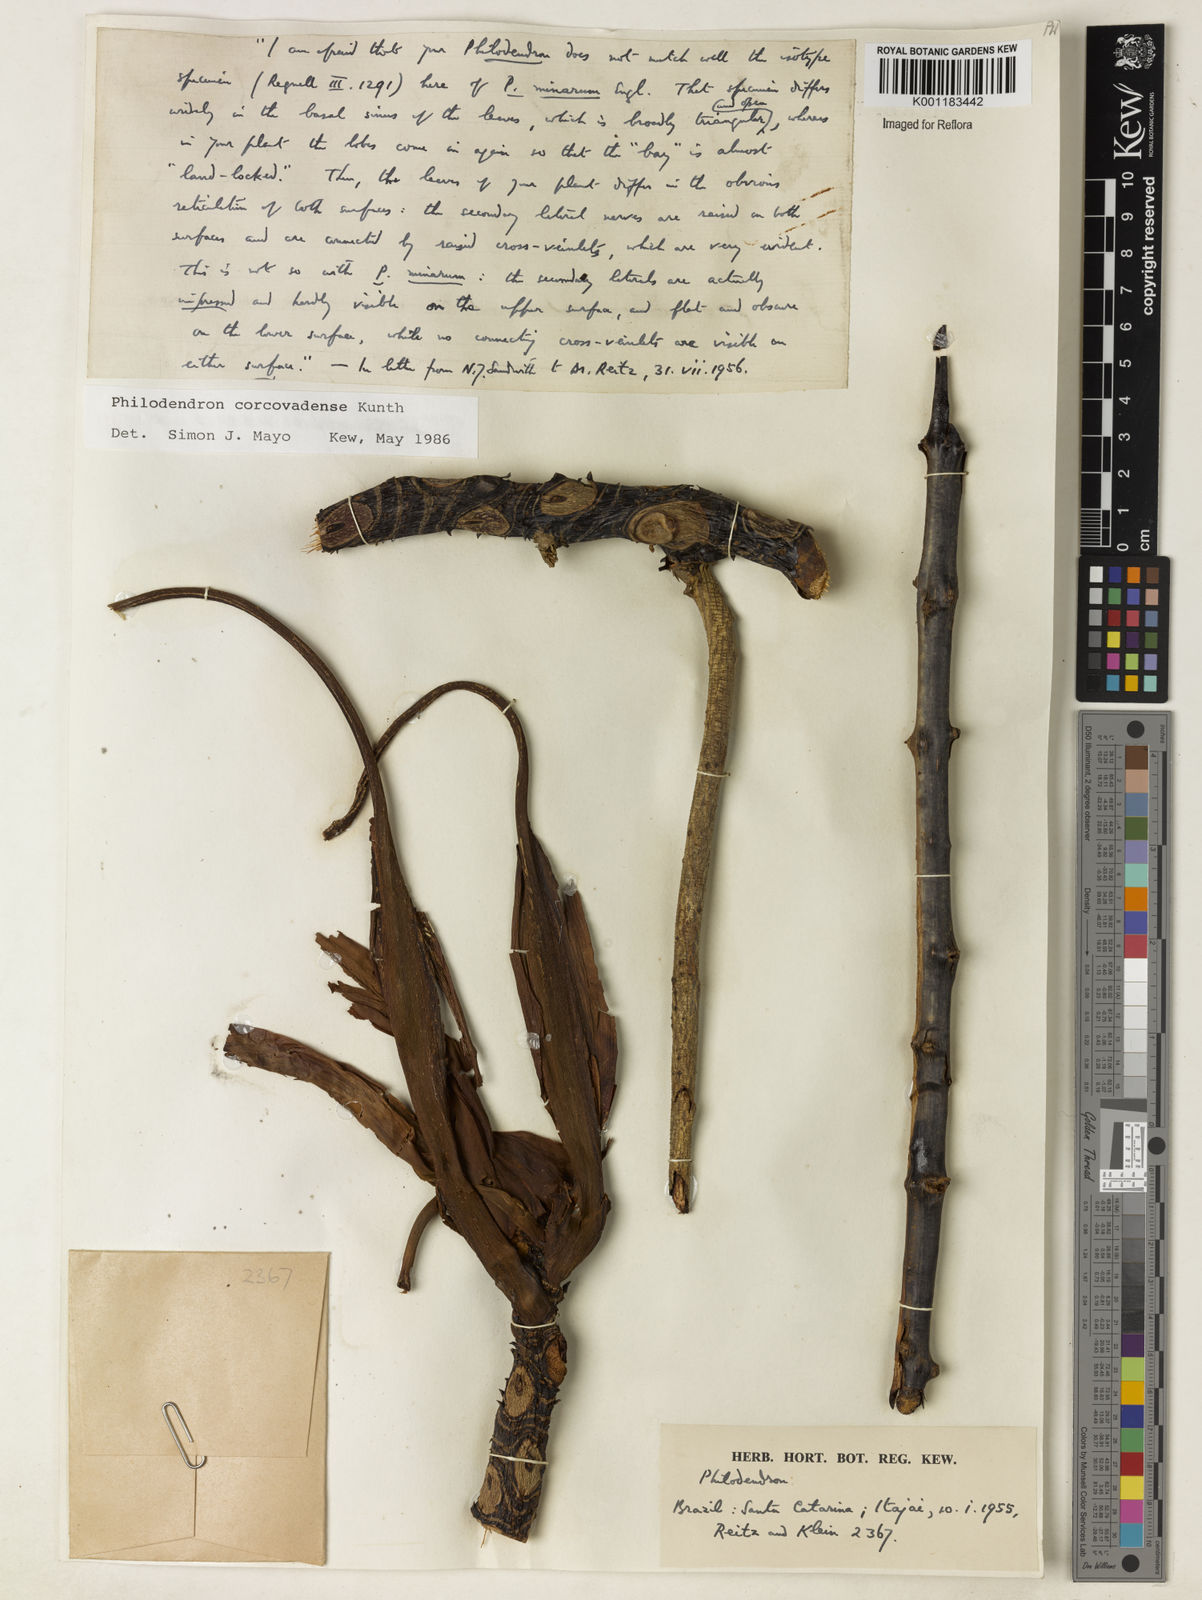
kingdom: Plantae
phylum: Tracheophyta
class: Liliopsida
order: Alismatales
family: Araceae
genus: Thaumatophyllum
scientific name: Thaumatophyllum corcovadense
